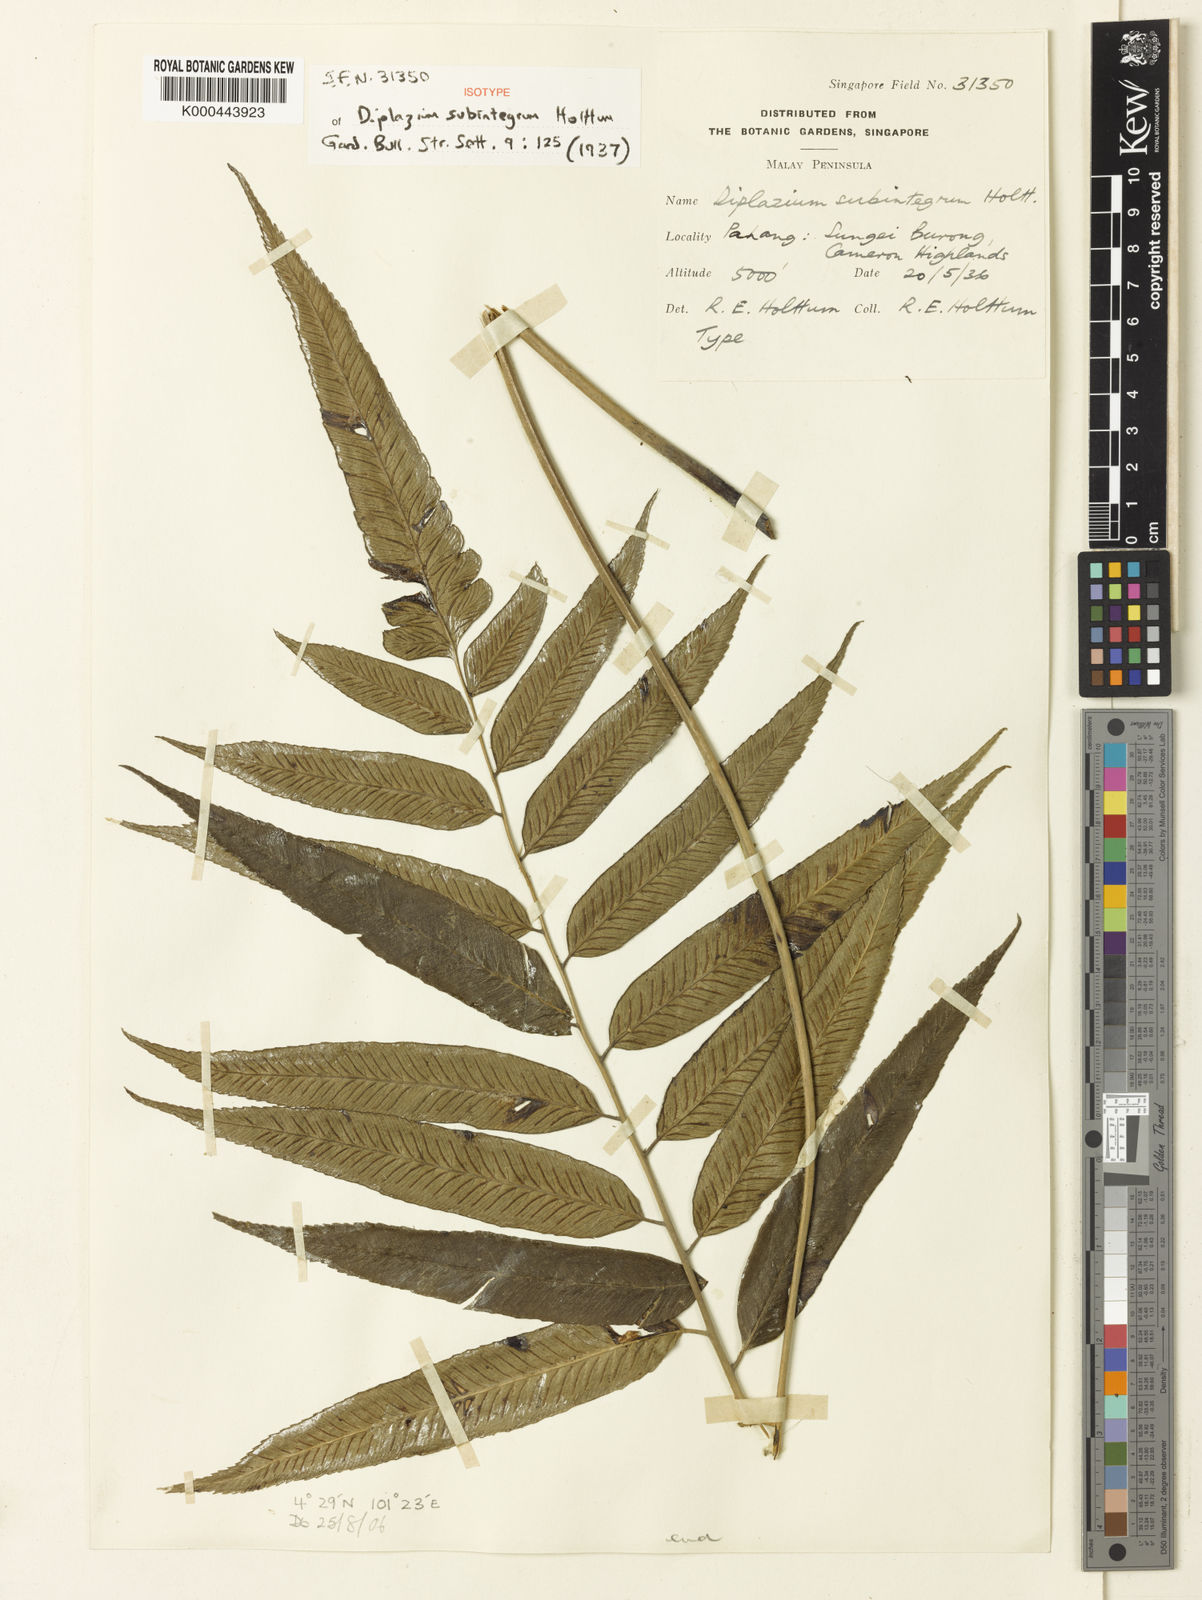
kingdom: Plantae
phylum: Tracheophyta
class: Polypodiopsida
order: Polypodiales
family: Athyriaceae
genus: Diplazium
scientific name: Diplazium subintegrum
